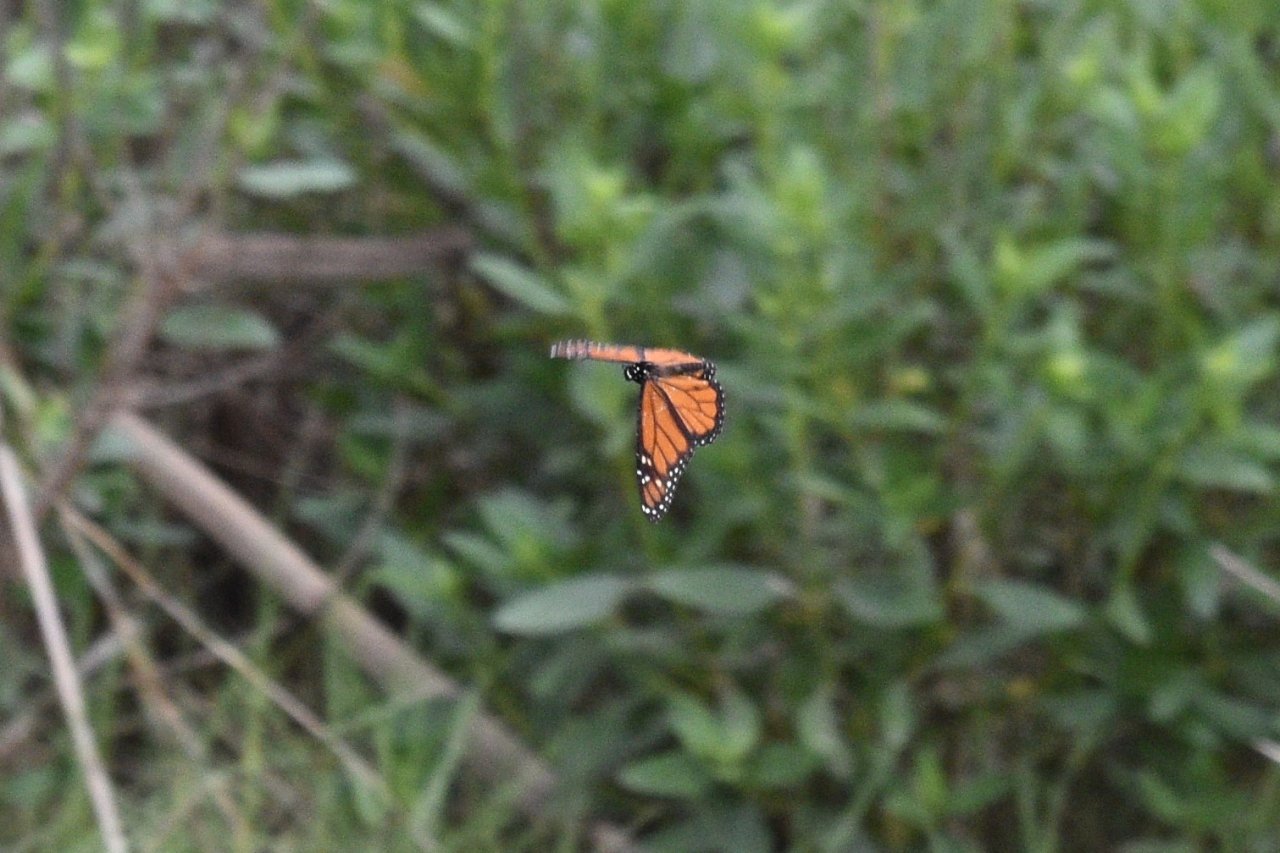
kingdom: Animalia
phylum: Arthropoda
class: Insecta
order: Lepidoptera
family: Nymphalidae
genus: Danaus
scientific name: Danaus plexippus
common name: Monarch
